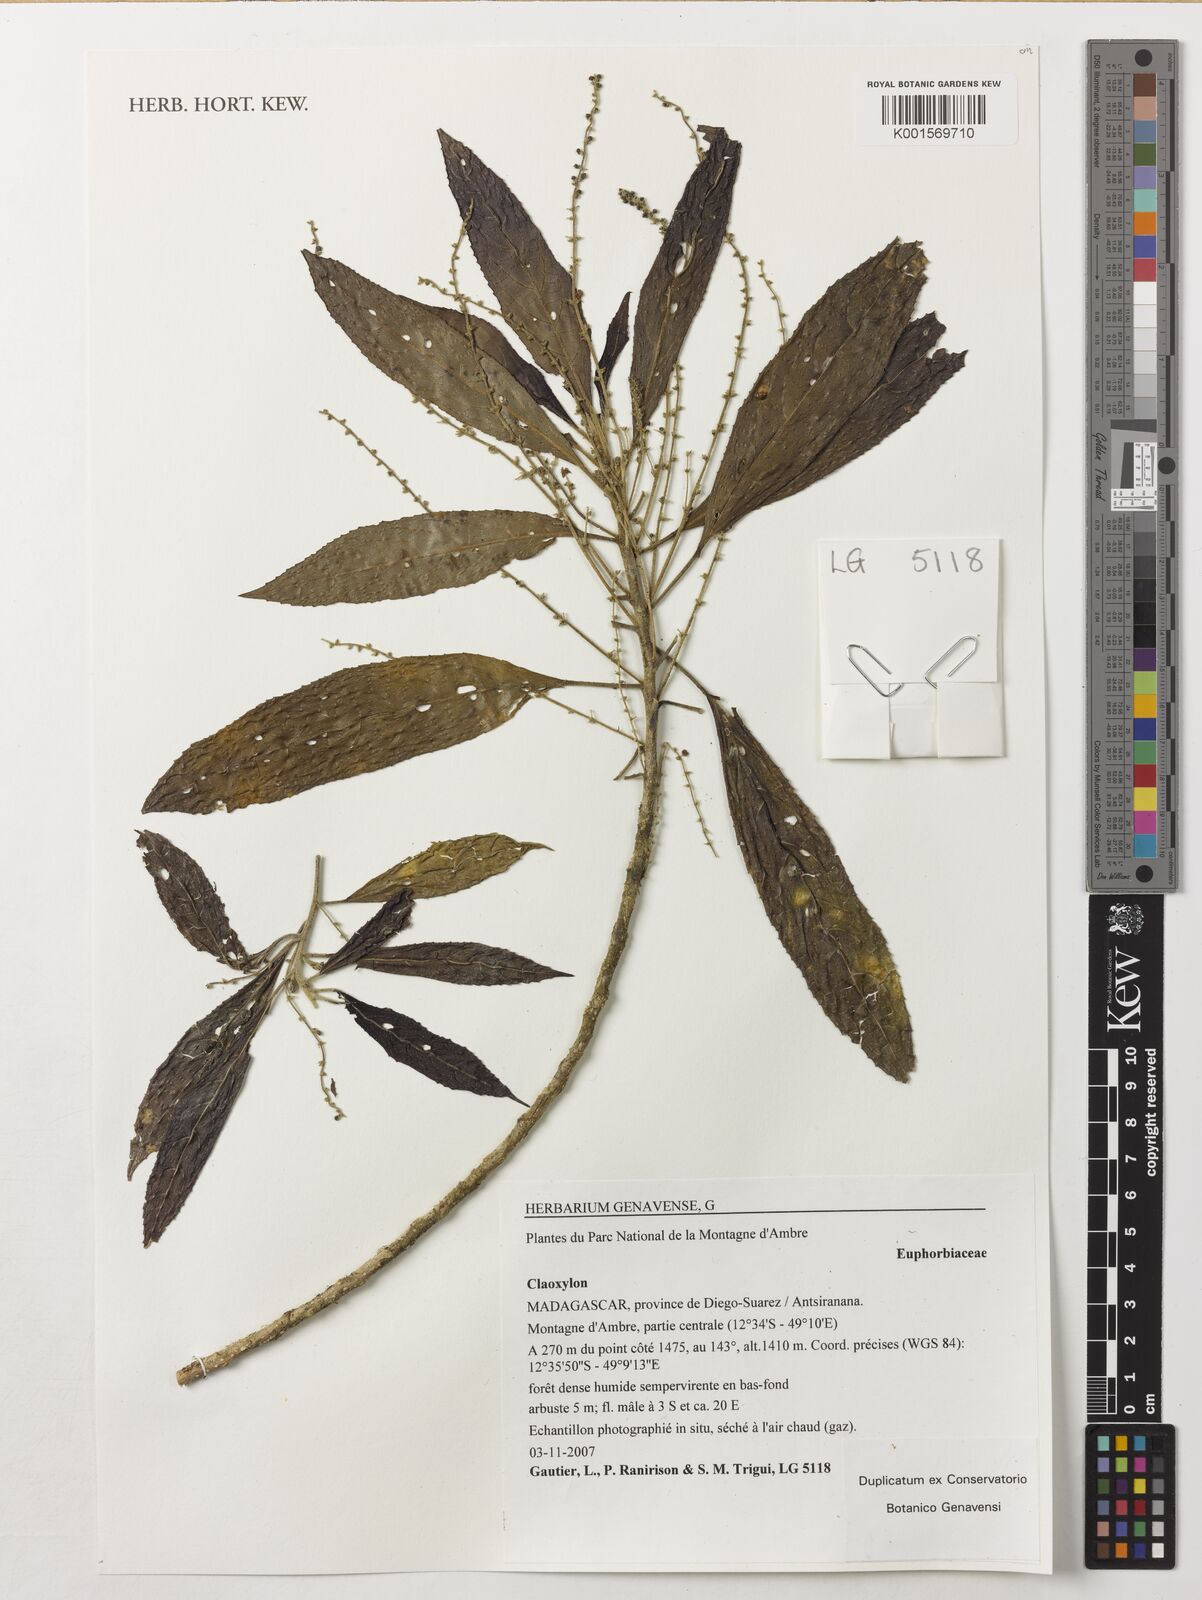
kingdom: Plantae
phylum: Tracheophyta
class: Magnoliopsida
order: Malpighiales
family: Euphorbiaceae
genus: Claoxylon
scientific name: Claoxylon
